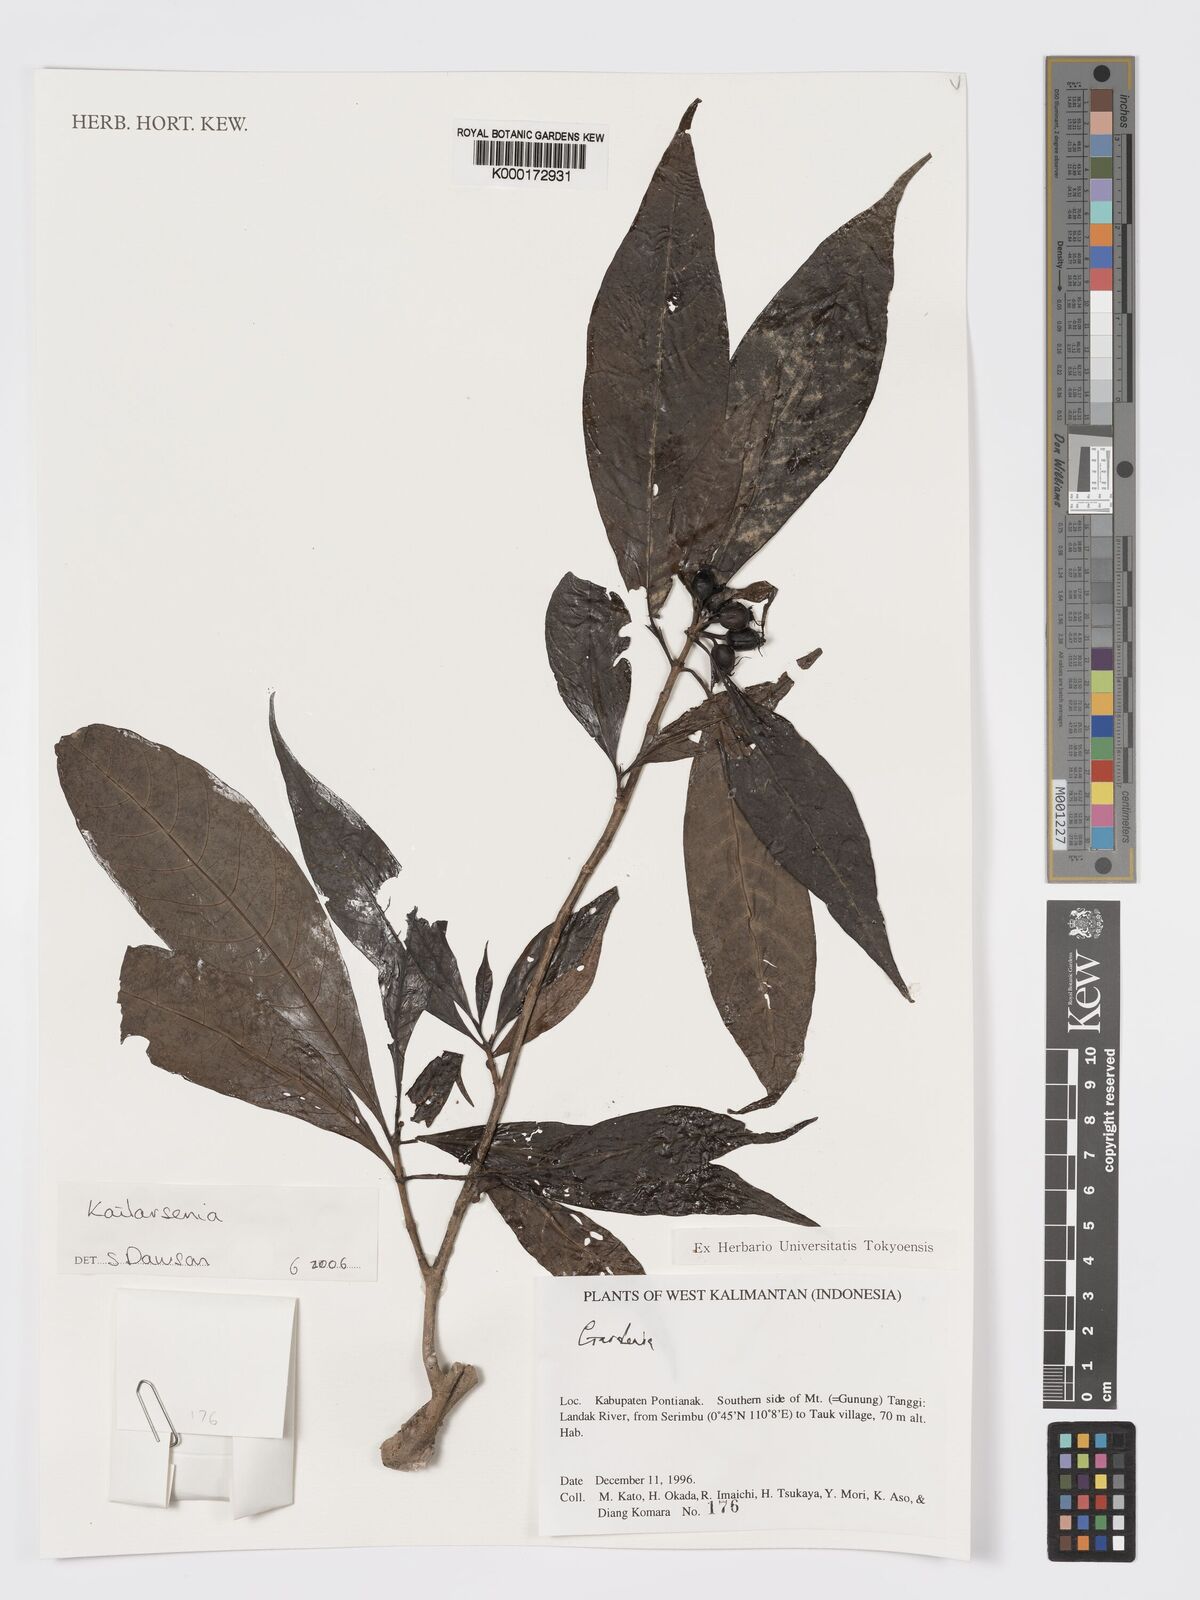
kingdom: Plantae
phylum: Tracheophyta
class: Magnoliopsida
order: Gentianales
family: Rubiaceae
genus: Kailarsenia
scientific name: Kailarsenia
